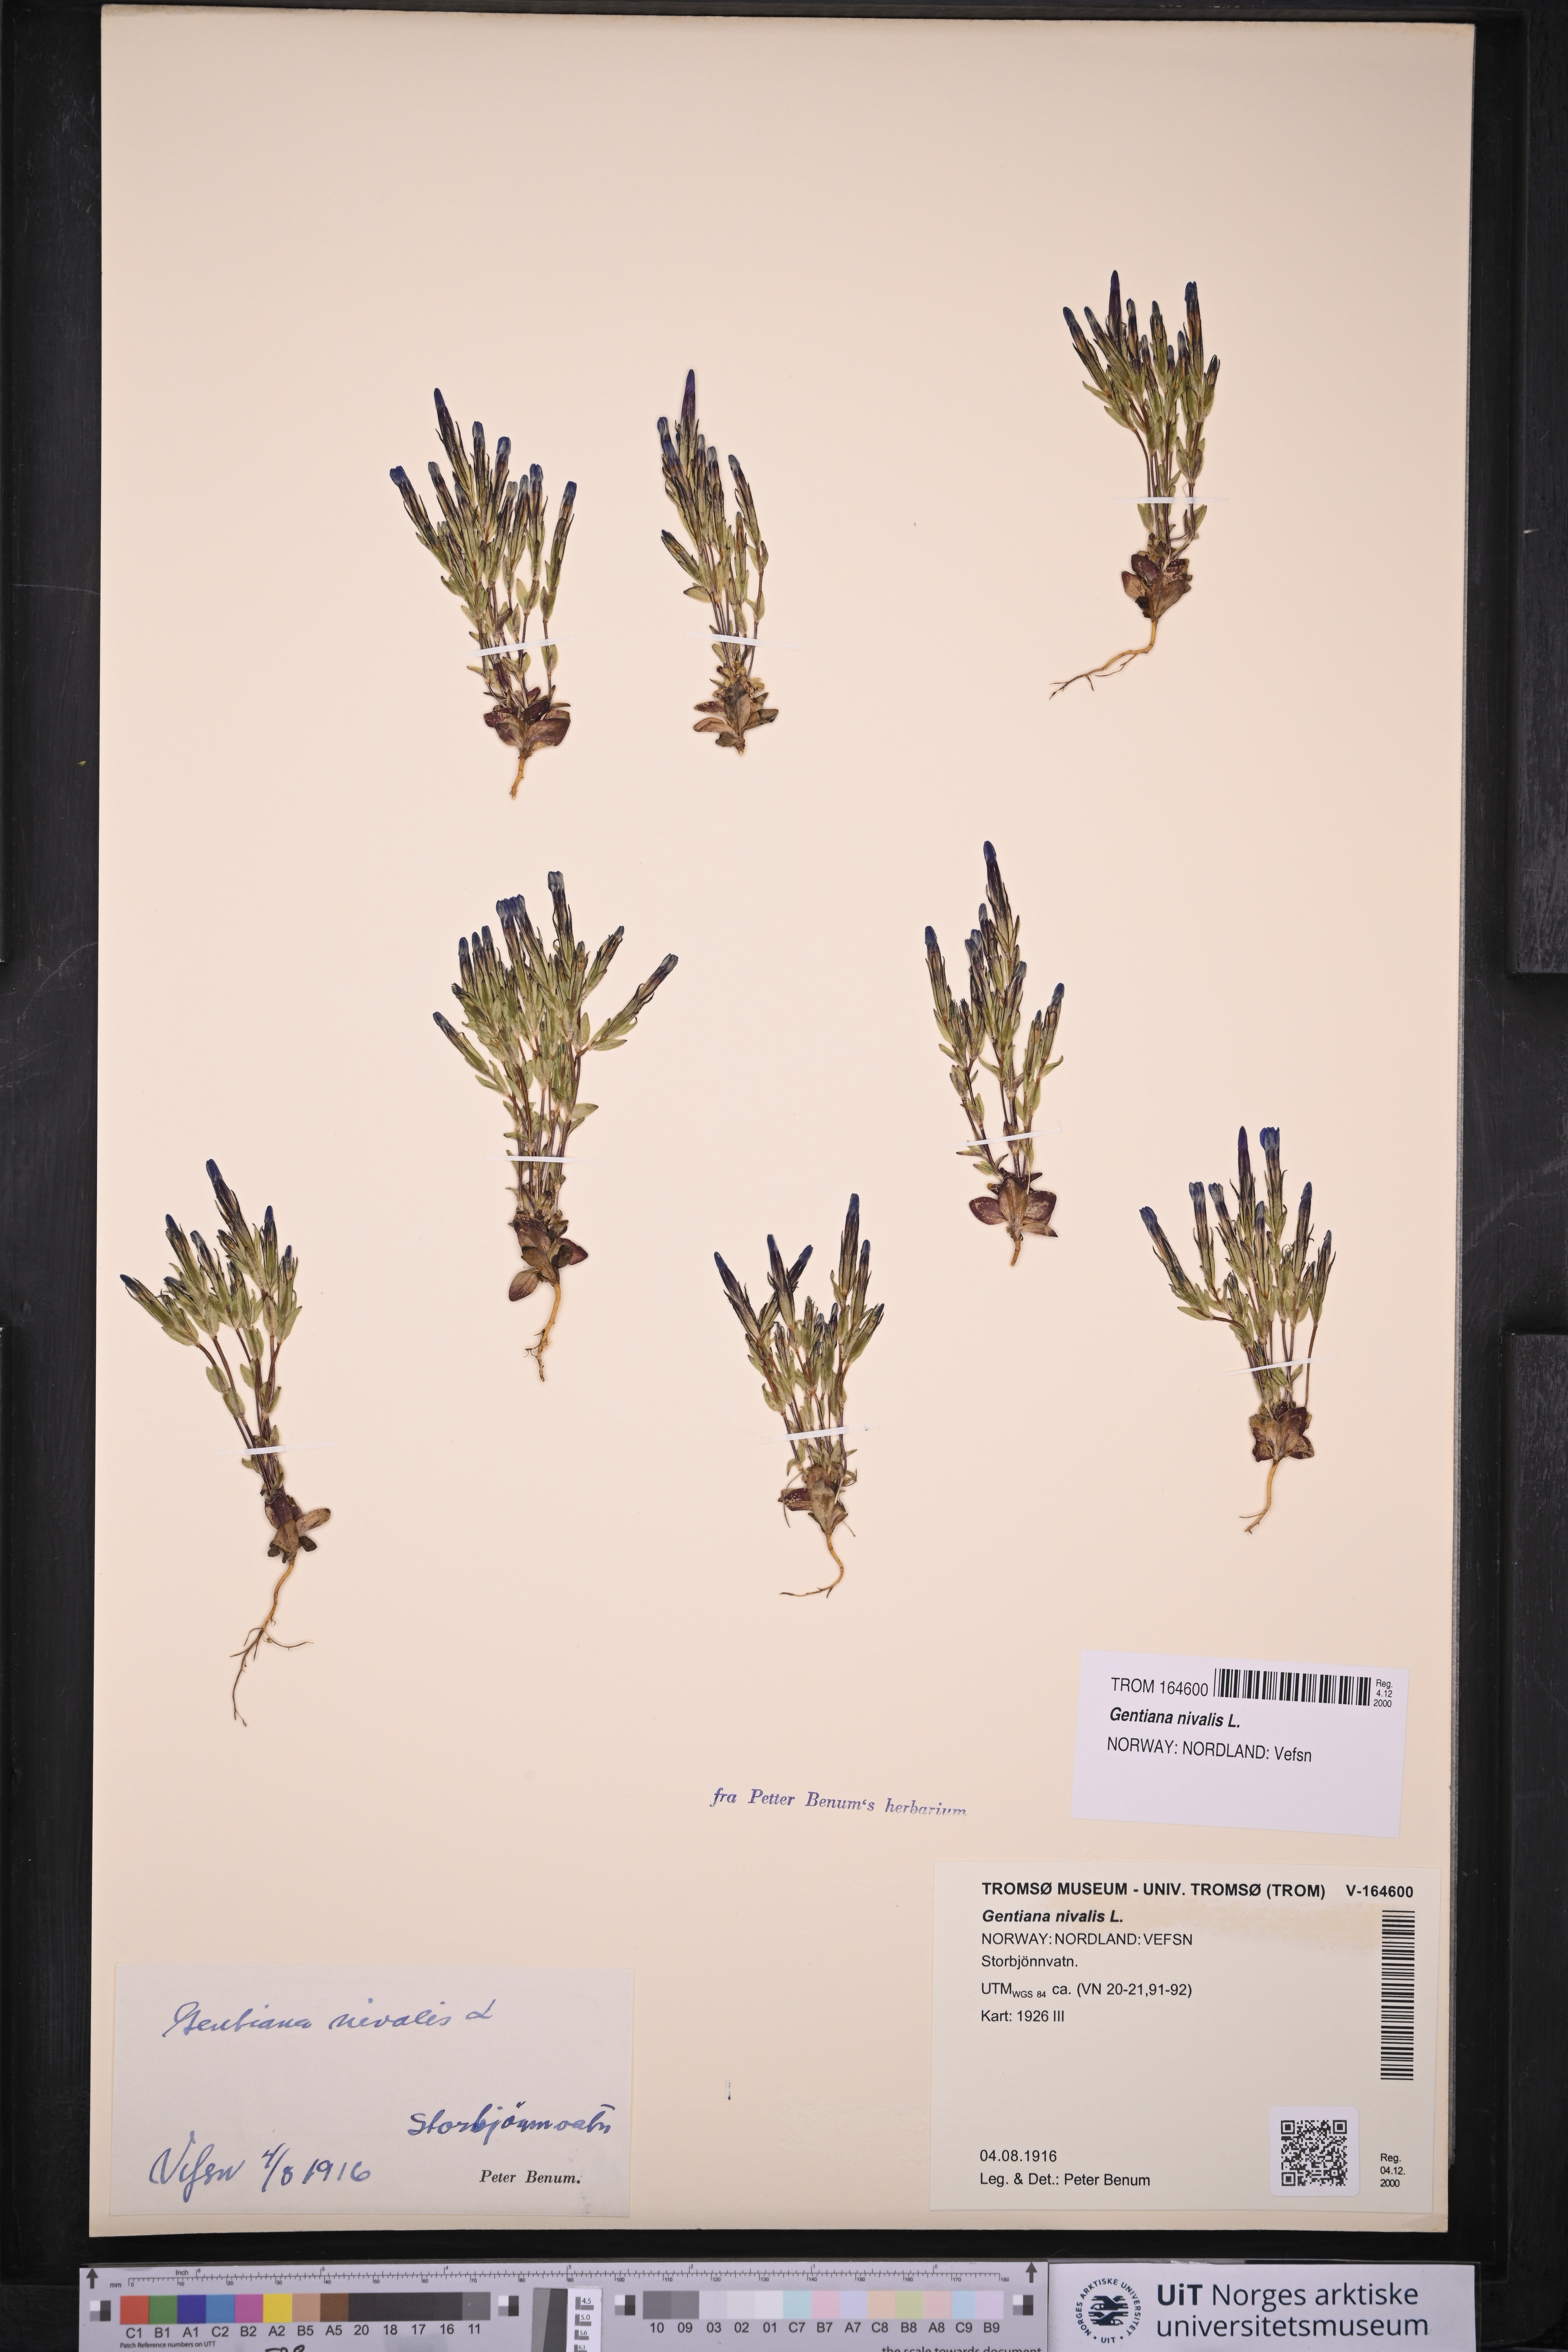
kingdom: Plantae
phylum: Tracheophyta
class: Magnoliopsida
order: Gentianales
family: Gentianaceae
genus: Gentiana
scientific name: Gentiana nivalis
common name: Alpine gentian
